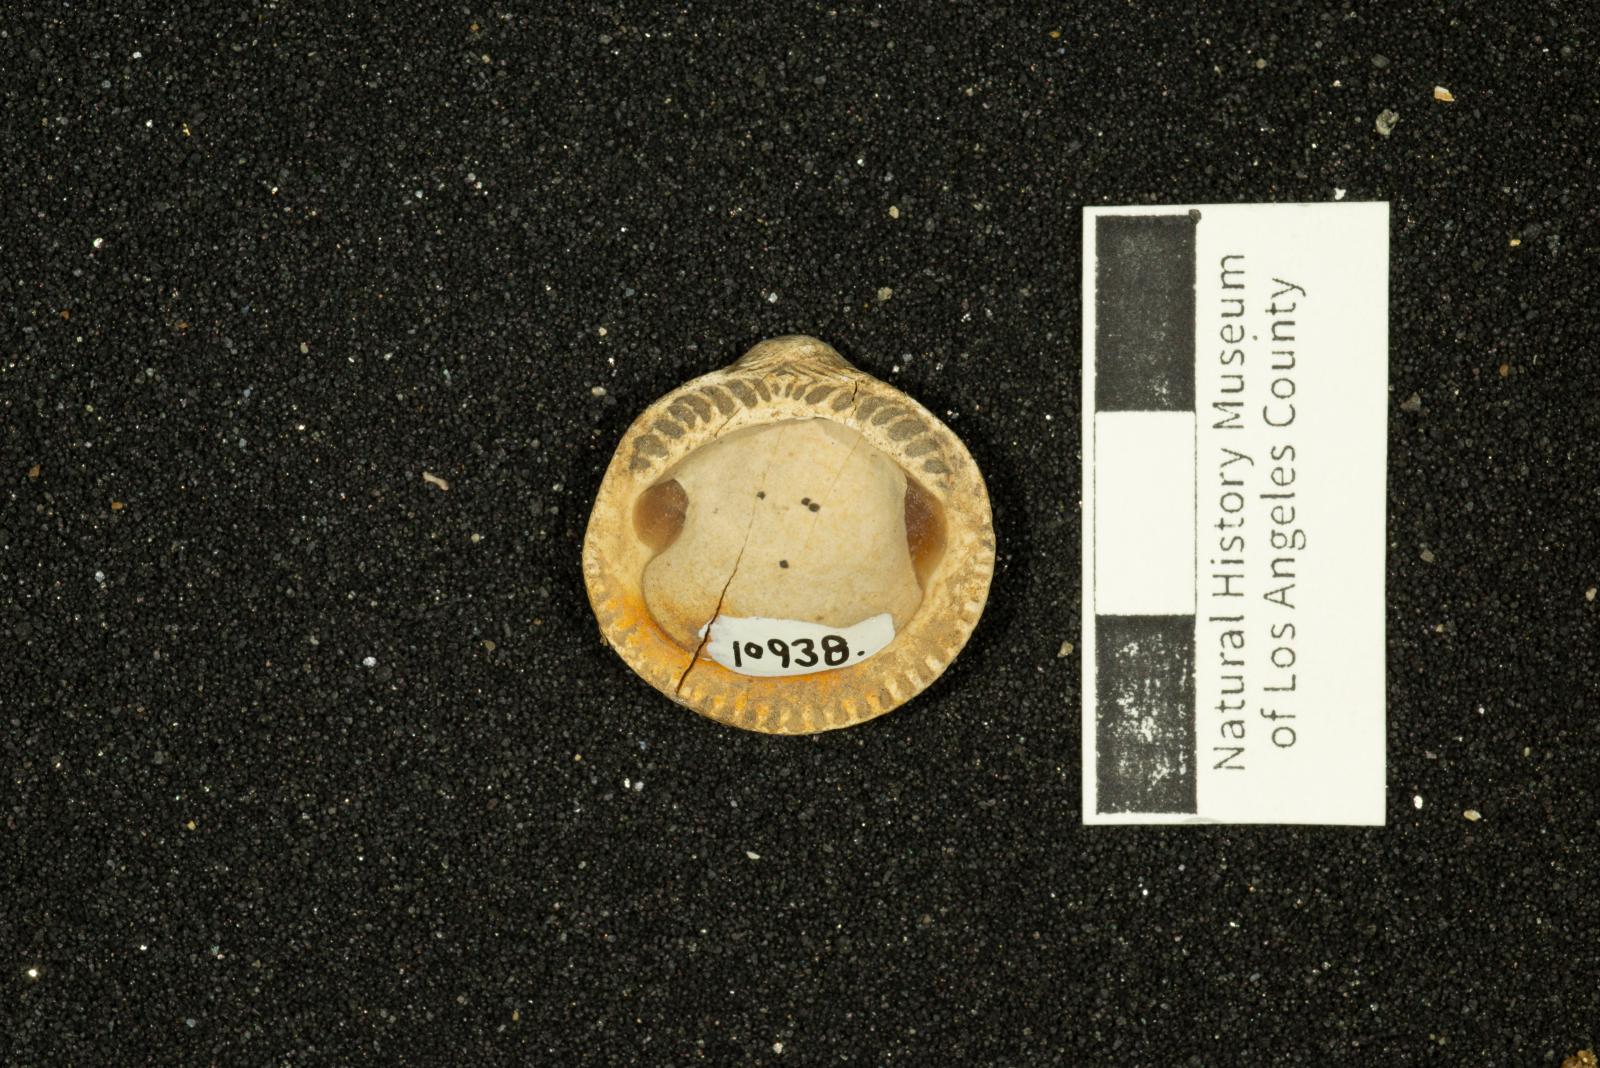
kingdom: Animalia
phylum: Mollusca
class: Bivalvia
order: Arcida
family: Glycymerididae
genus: Glycymerita
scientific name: Glycymerita Axinaea veatchii
